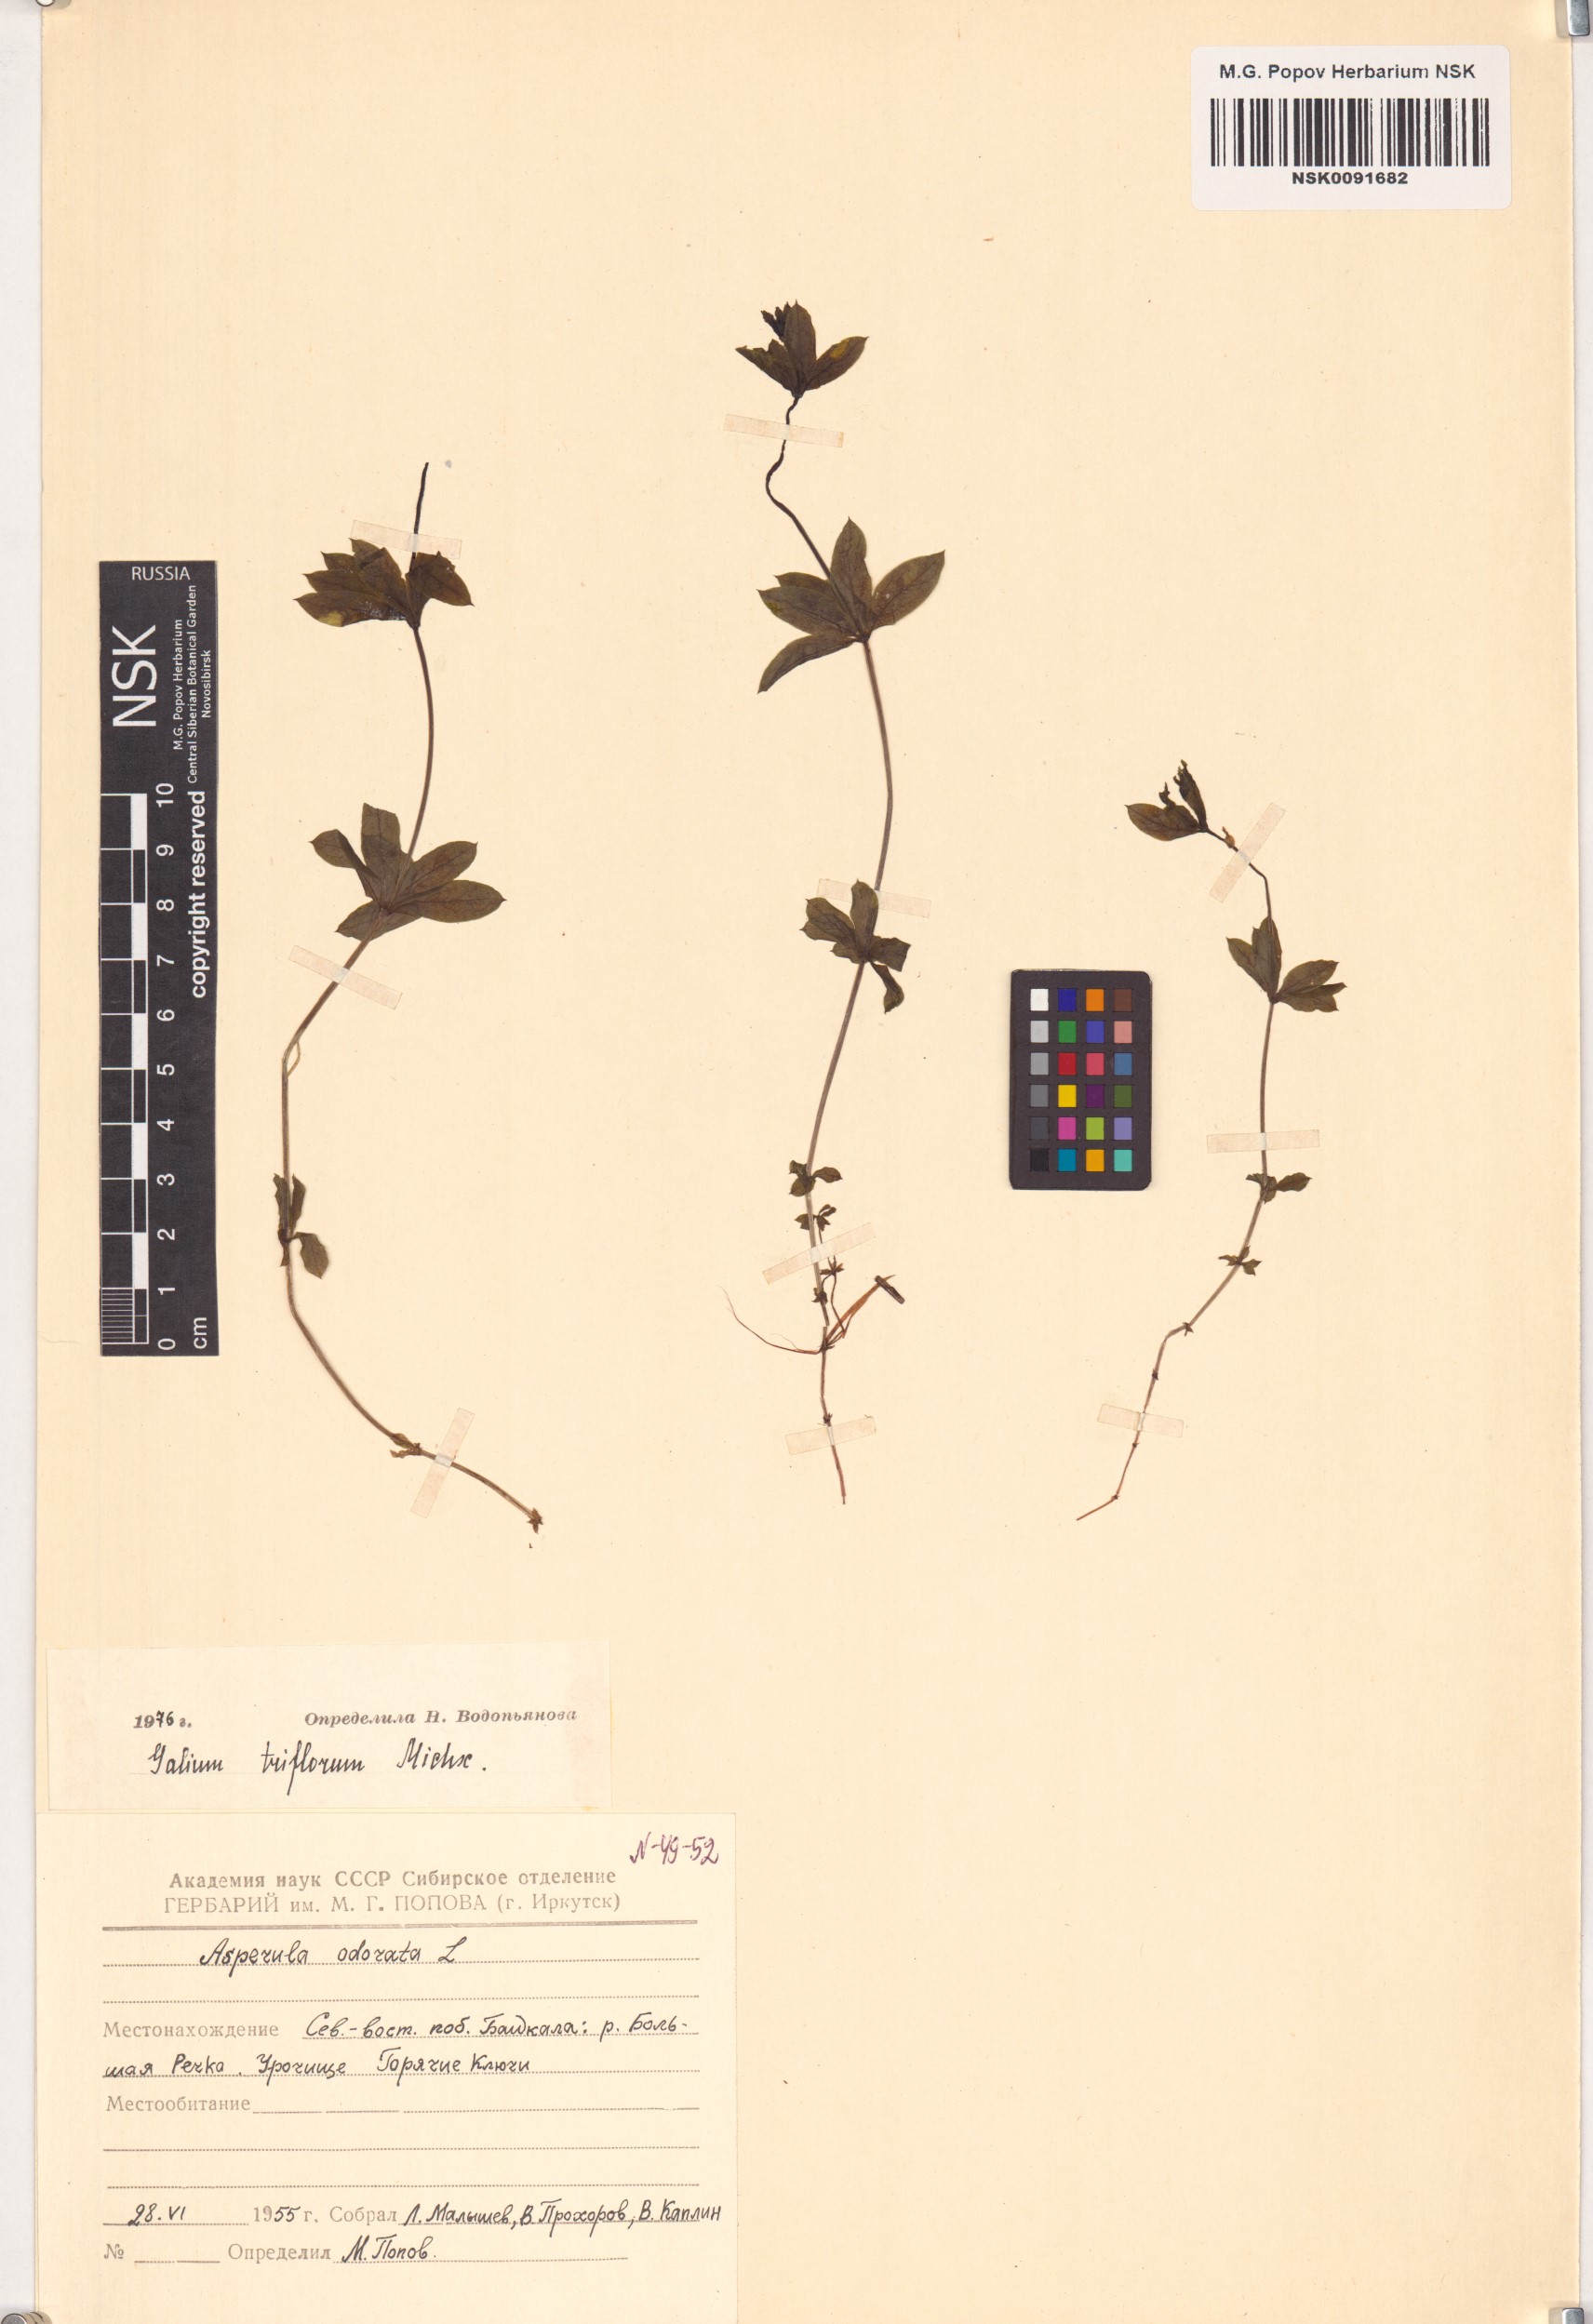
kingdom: Plantae
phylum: Tracheophyta
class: Magnoliopsida
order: Gentianales
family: Rubiaceae
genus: Galium
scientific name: Galium triflorum
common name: Fragrant bedstraw
